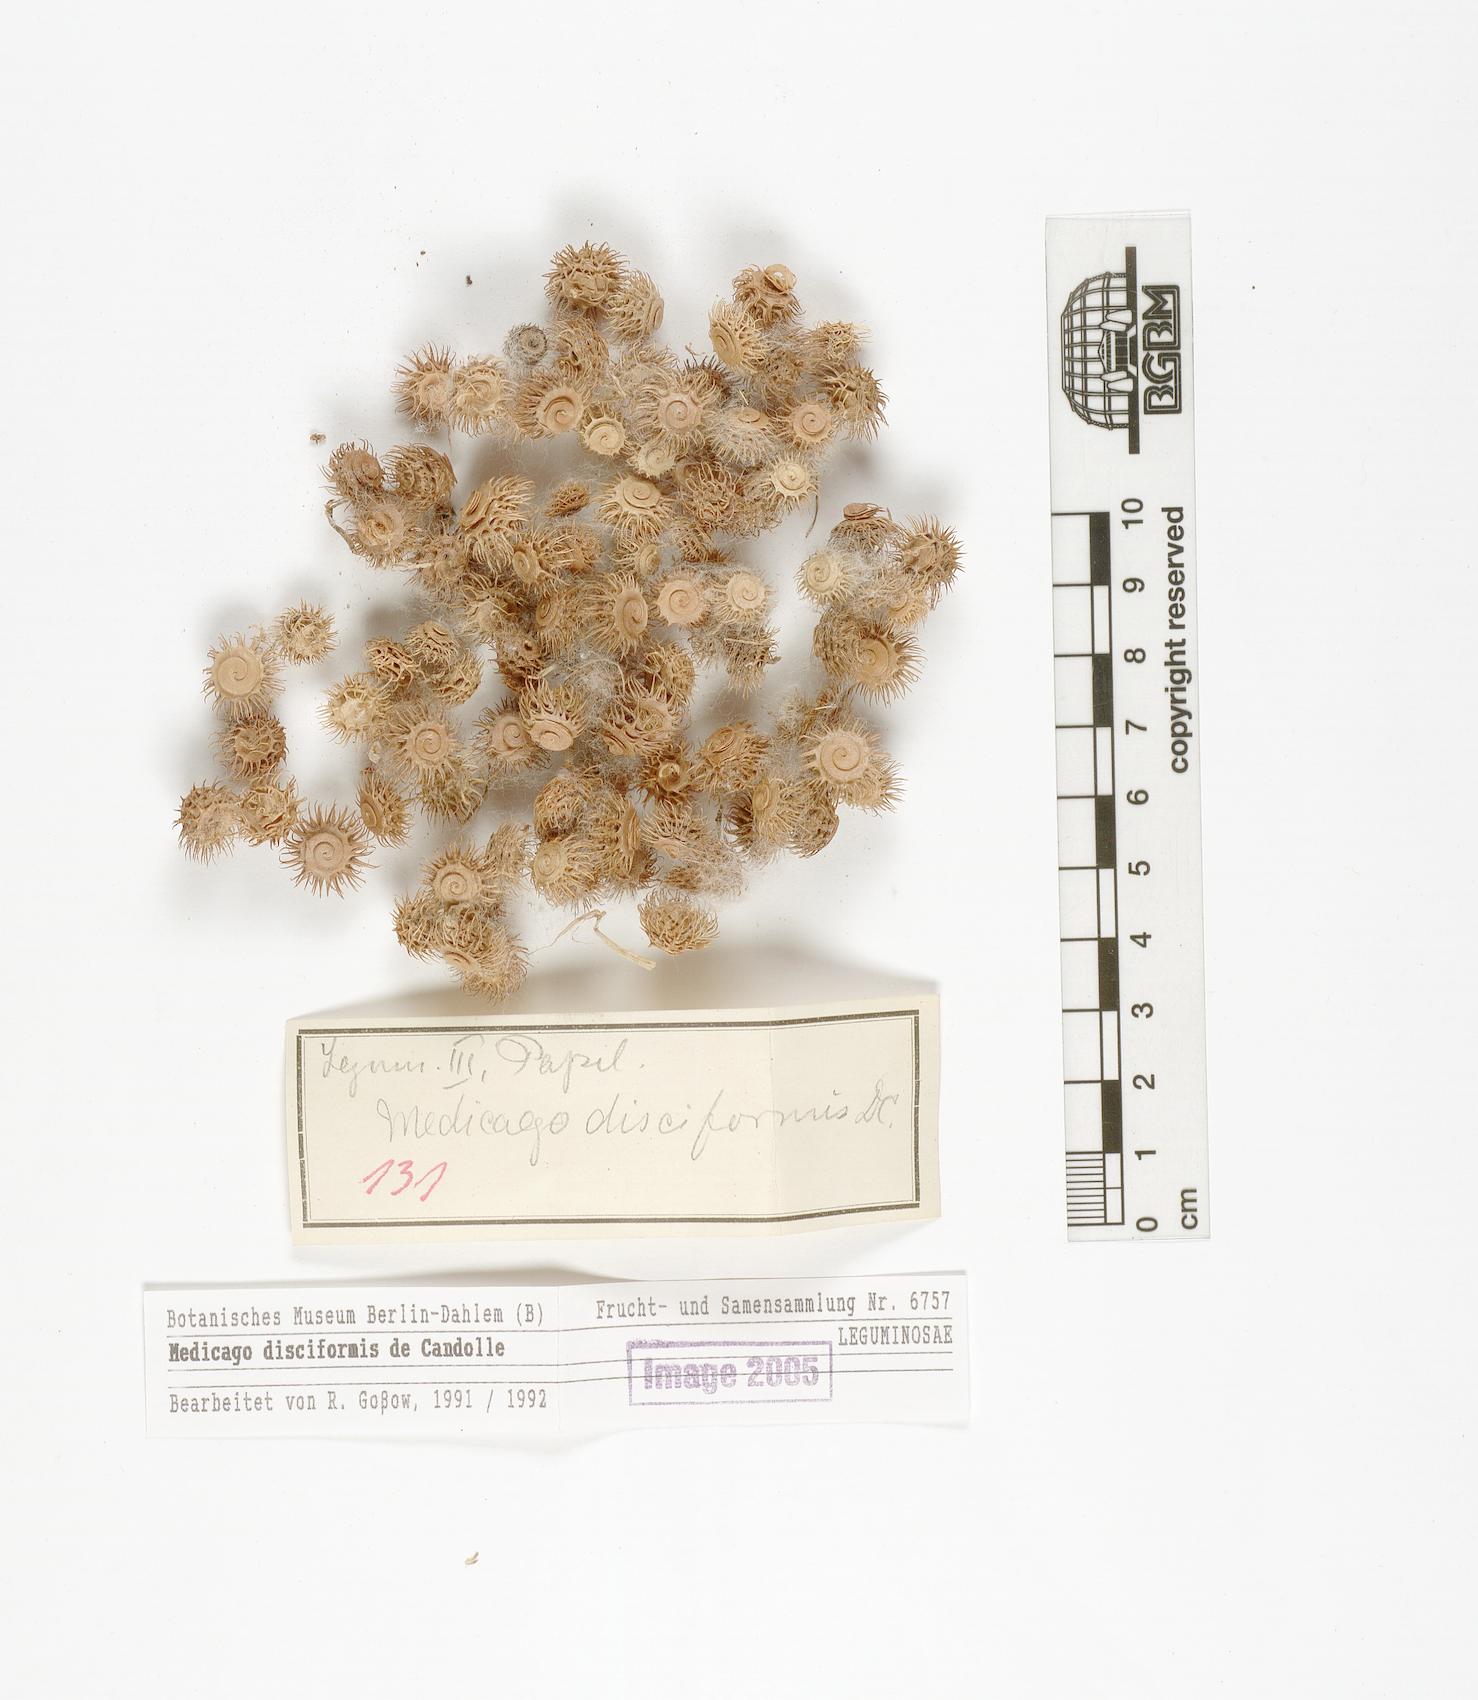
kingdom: Plantae
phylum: Tracheophyta
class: Magnoliopsida
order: Fabales
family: Fabaceae
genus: Medicago
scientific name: Medicago disciformis
